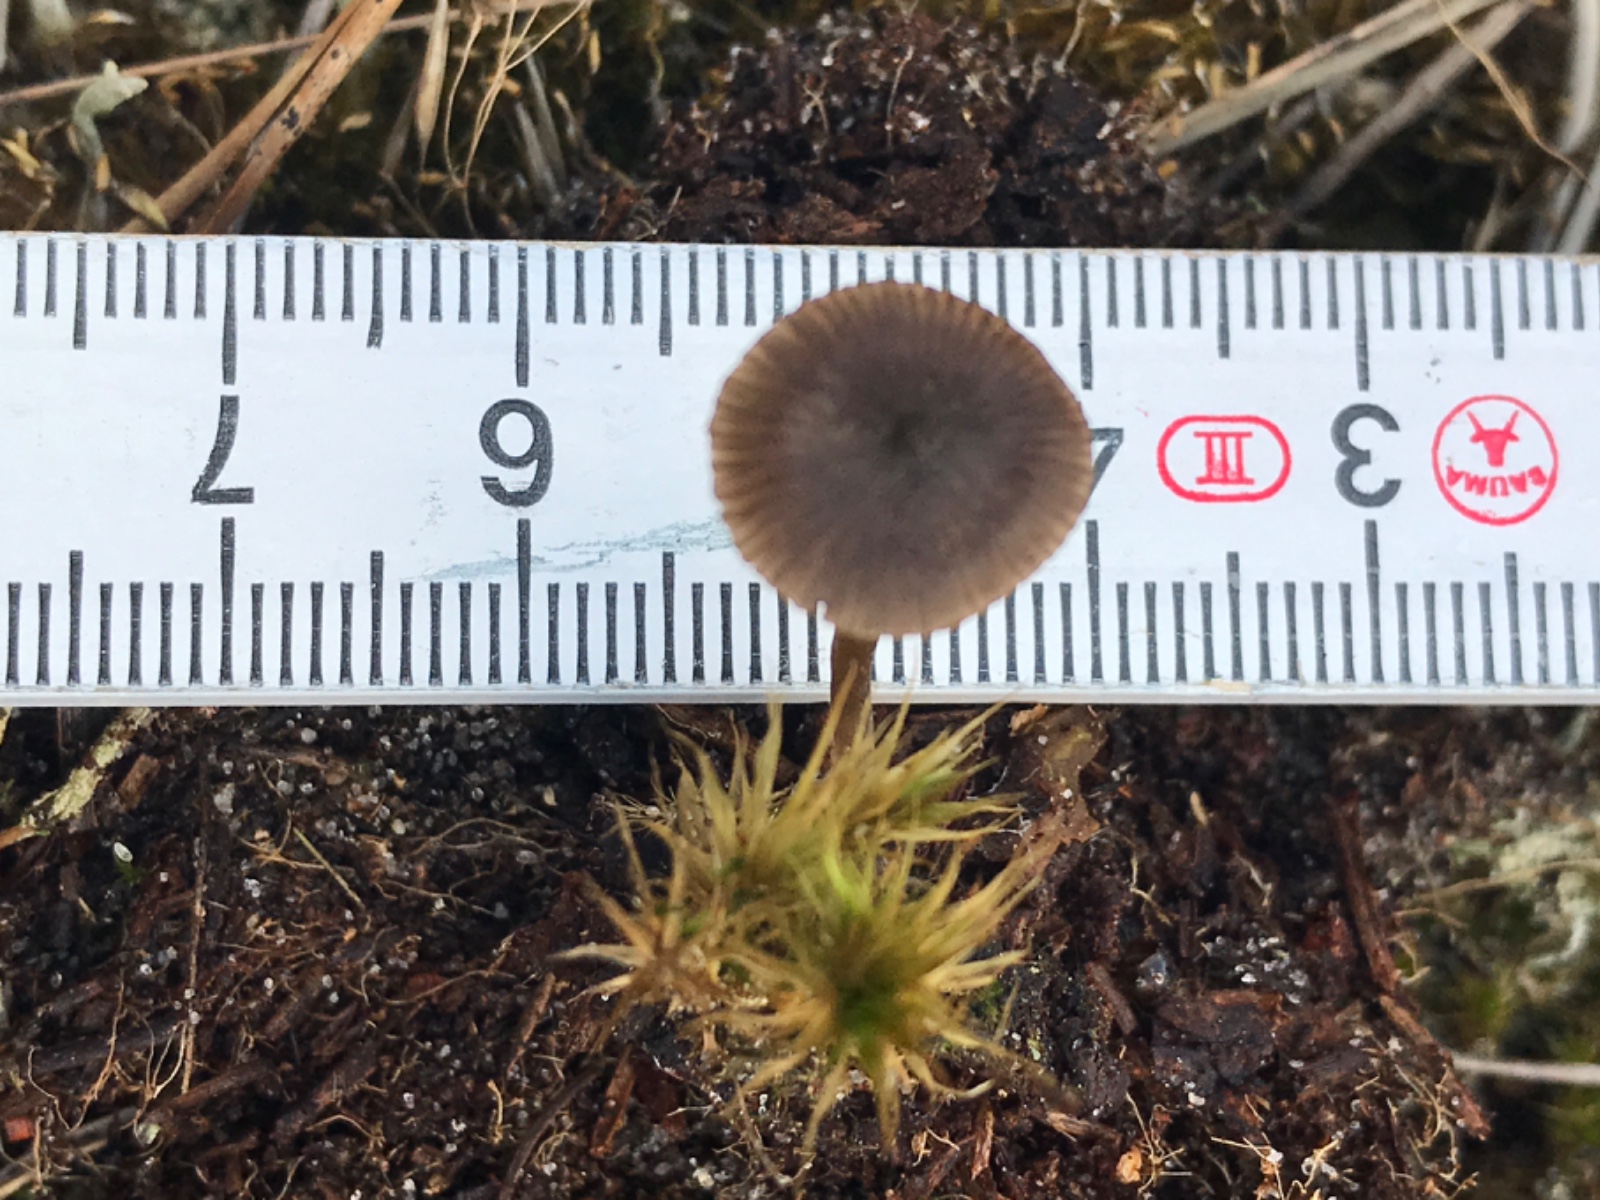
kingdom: Fungi
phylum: Basidiomycota
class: Agaricomycetes
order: Agaricales
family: Entolomataceae
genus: Entoloma
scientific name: Entoloma
